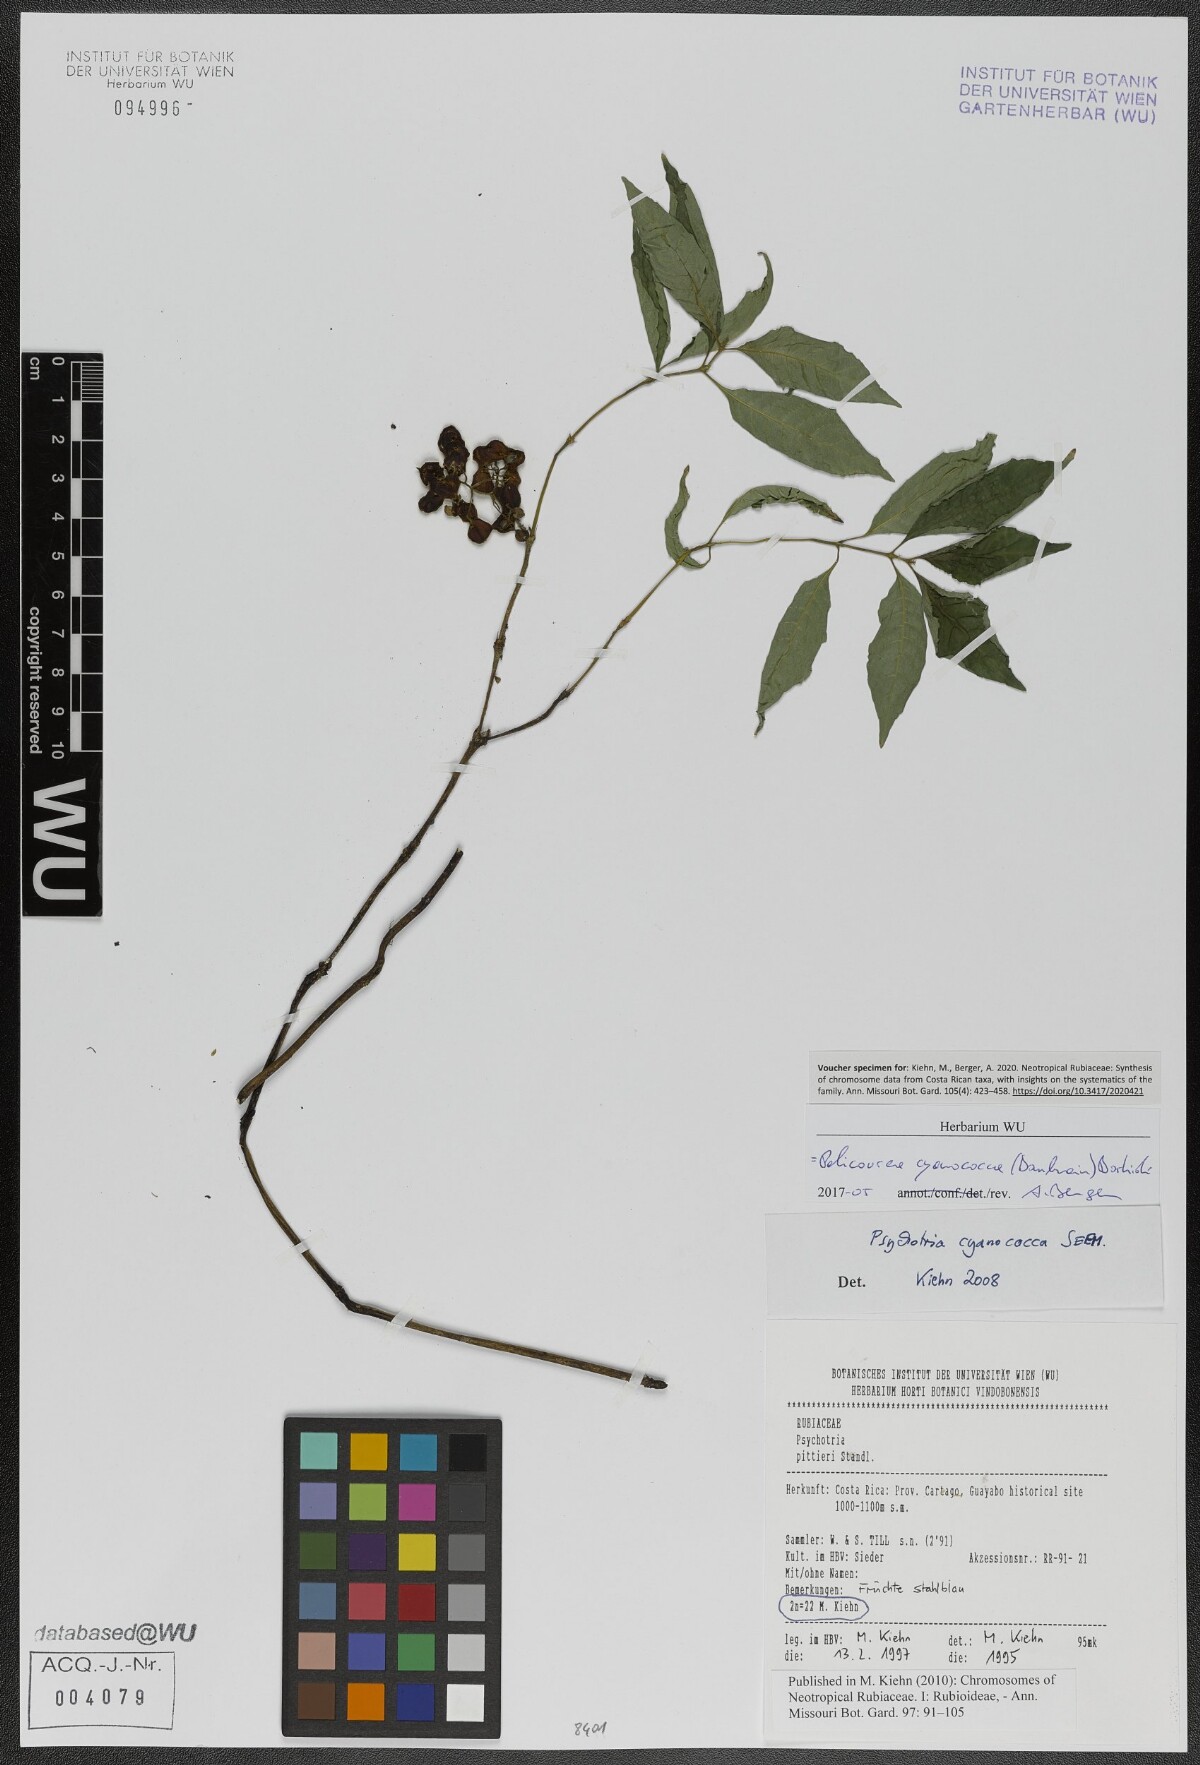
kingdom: Plantae
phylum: Tracheophyta
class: Magnoliopsida
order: Gentianales
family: Rubiaceae
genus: Palicourea
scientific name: Palicourea cyanococca
